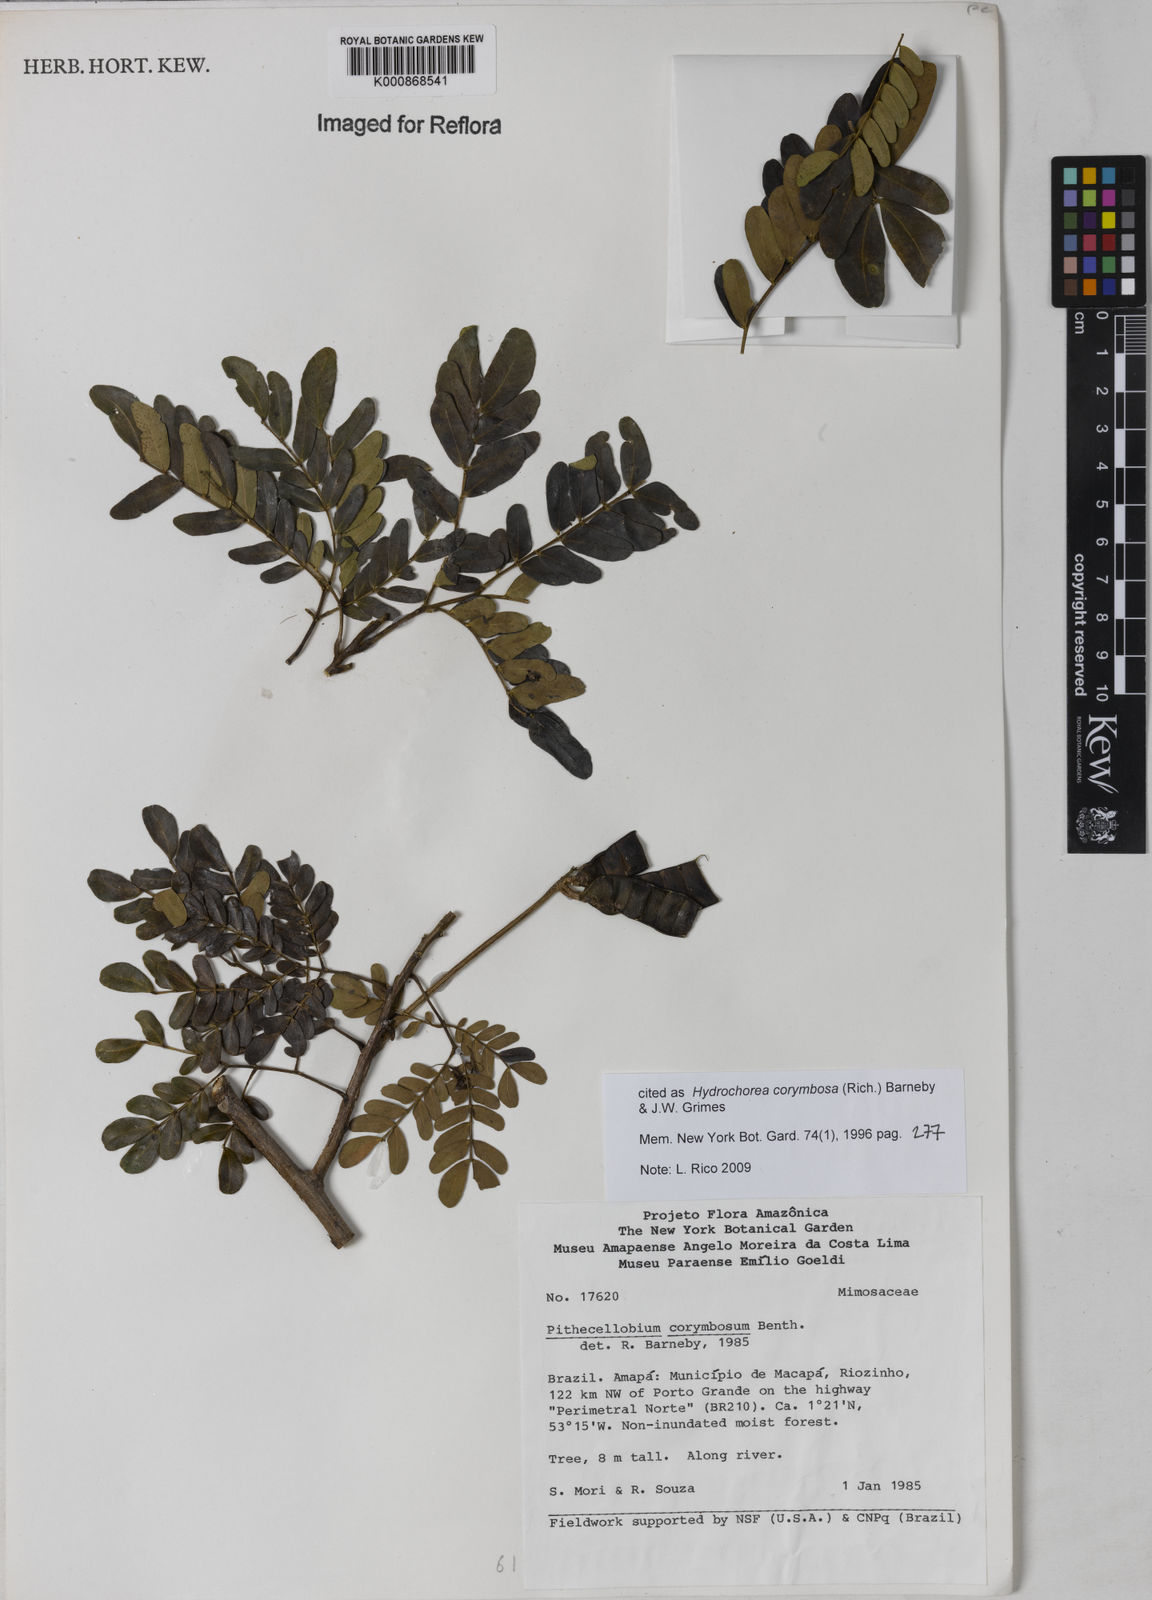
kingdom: Plantae
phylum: Tracheophyta
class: Magnoliopsida
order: Fabales
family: Fabaceae
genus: Hydrochorea
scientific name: Hydrochorea corymbosa
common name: Swamp manariballi
